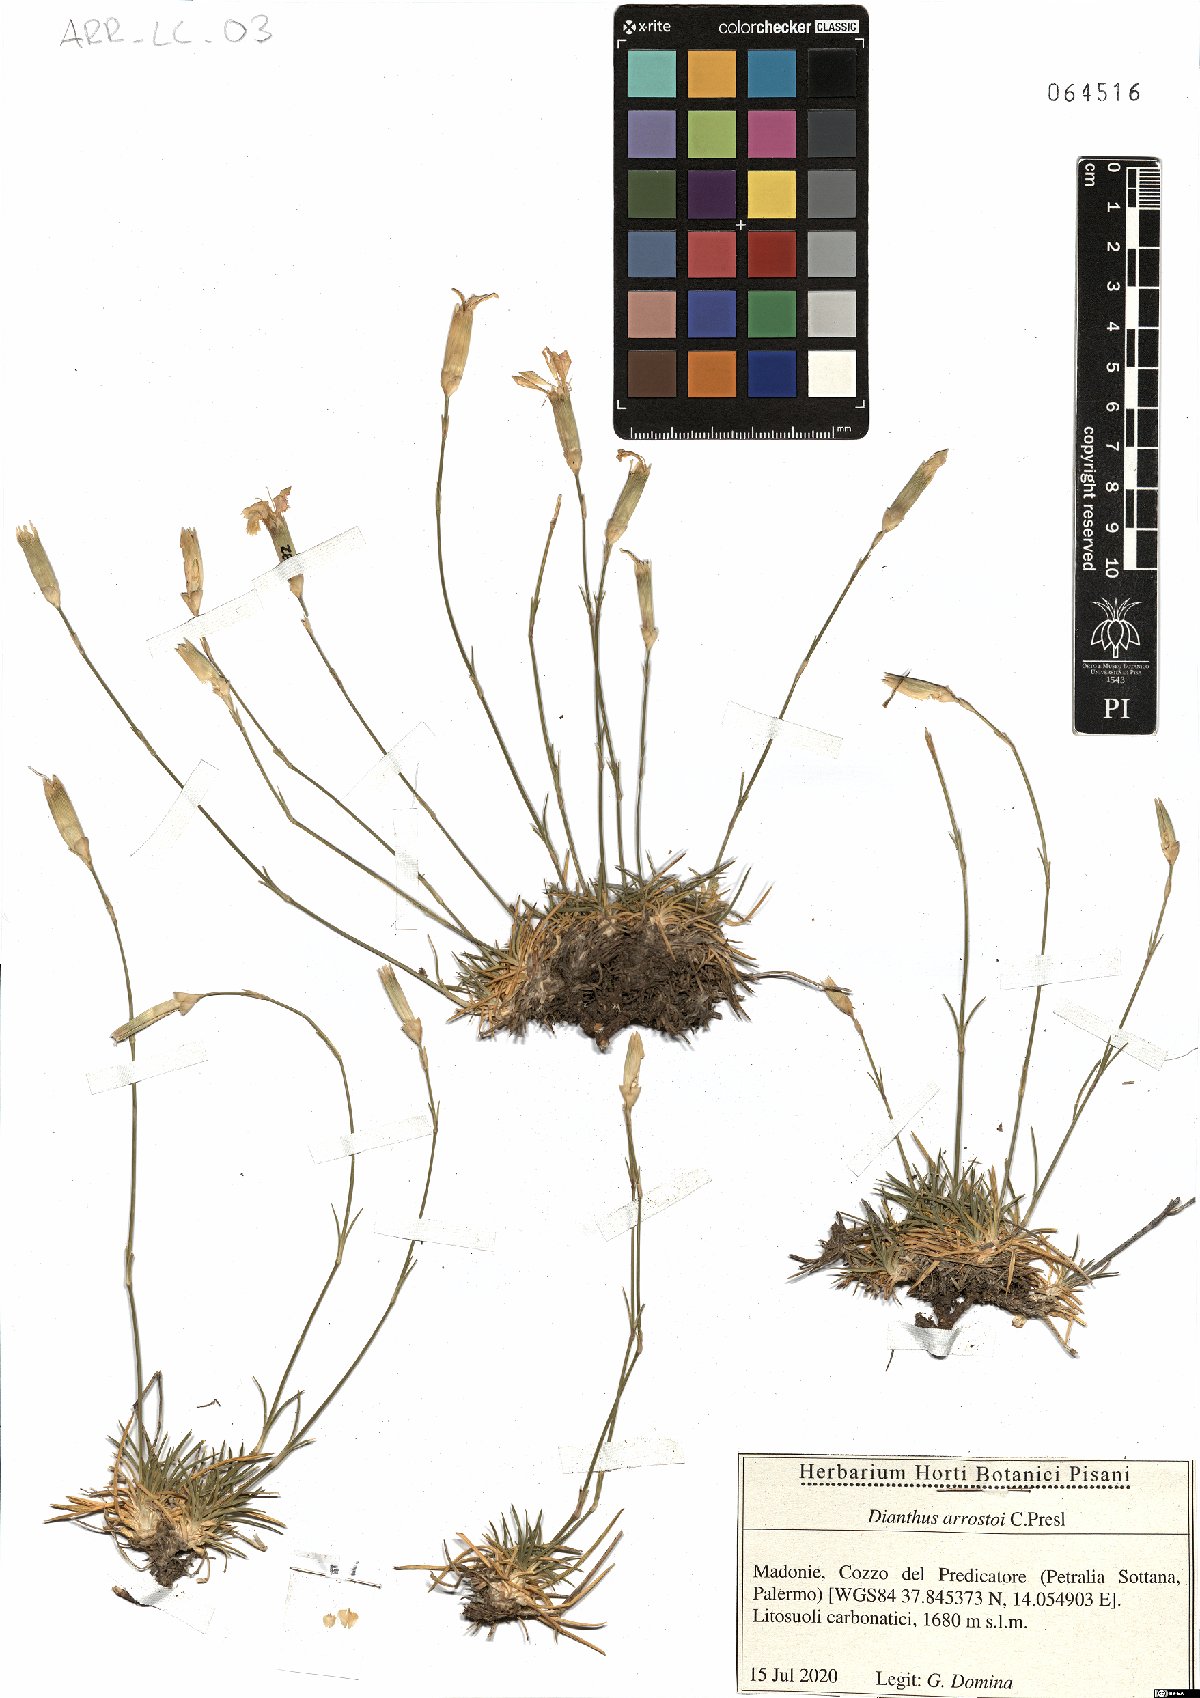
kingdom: Plantae
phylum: Tracheophyta
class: Magnoliopsida
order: Caryophyllales
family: Caryophyllaceae
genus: Dianthus
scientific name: Dianthus arrostoi
